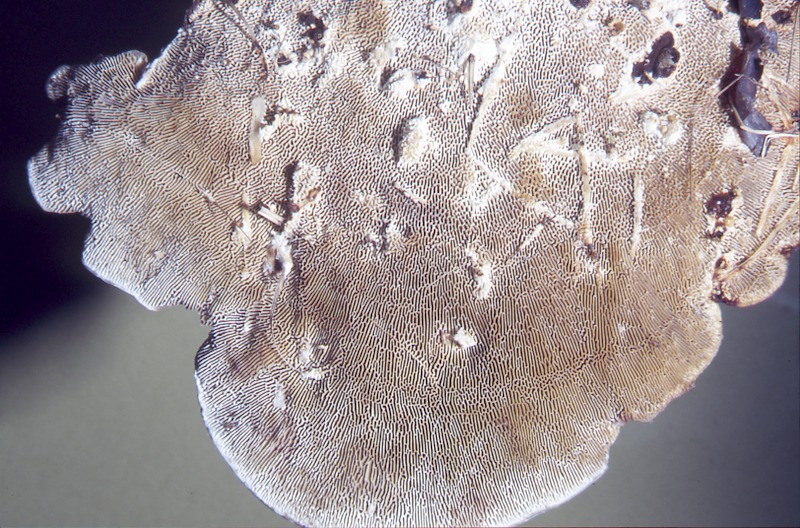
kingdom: Plantae
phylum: Tracheophyta
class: Magnoliopsida
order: Fagales
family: Betulaceae
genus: Betula
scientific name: Betula
